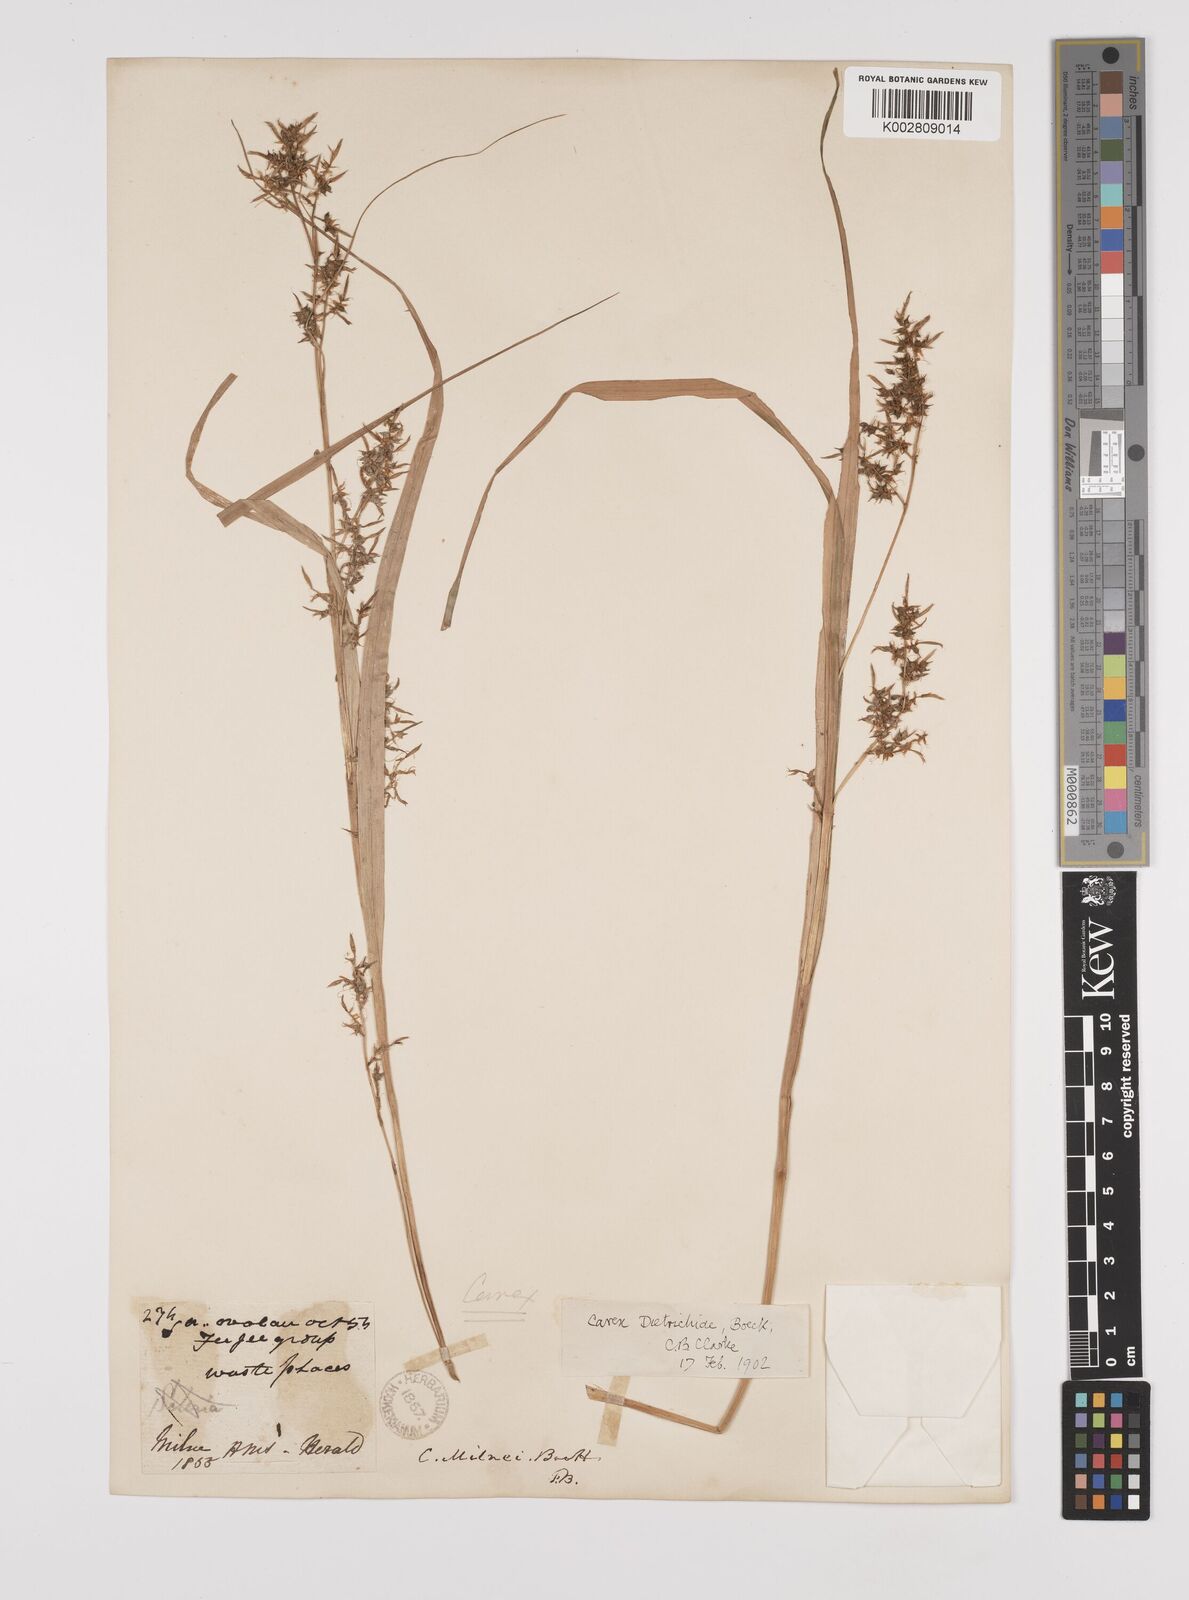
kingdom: Plantae
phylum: Tracheophyta
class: Liliopsida
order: Poales
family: Cyperaceae
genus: Carex
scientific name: Carex indica
